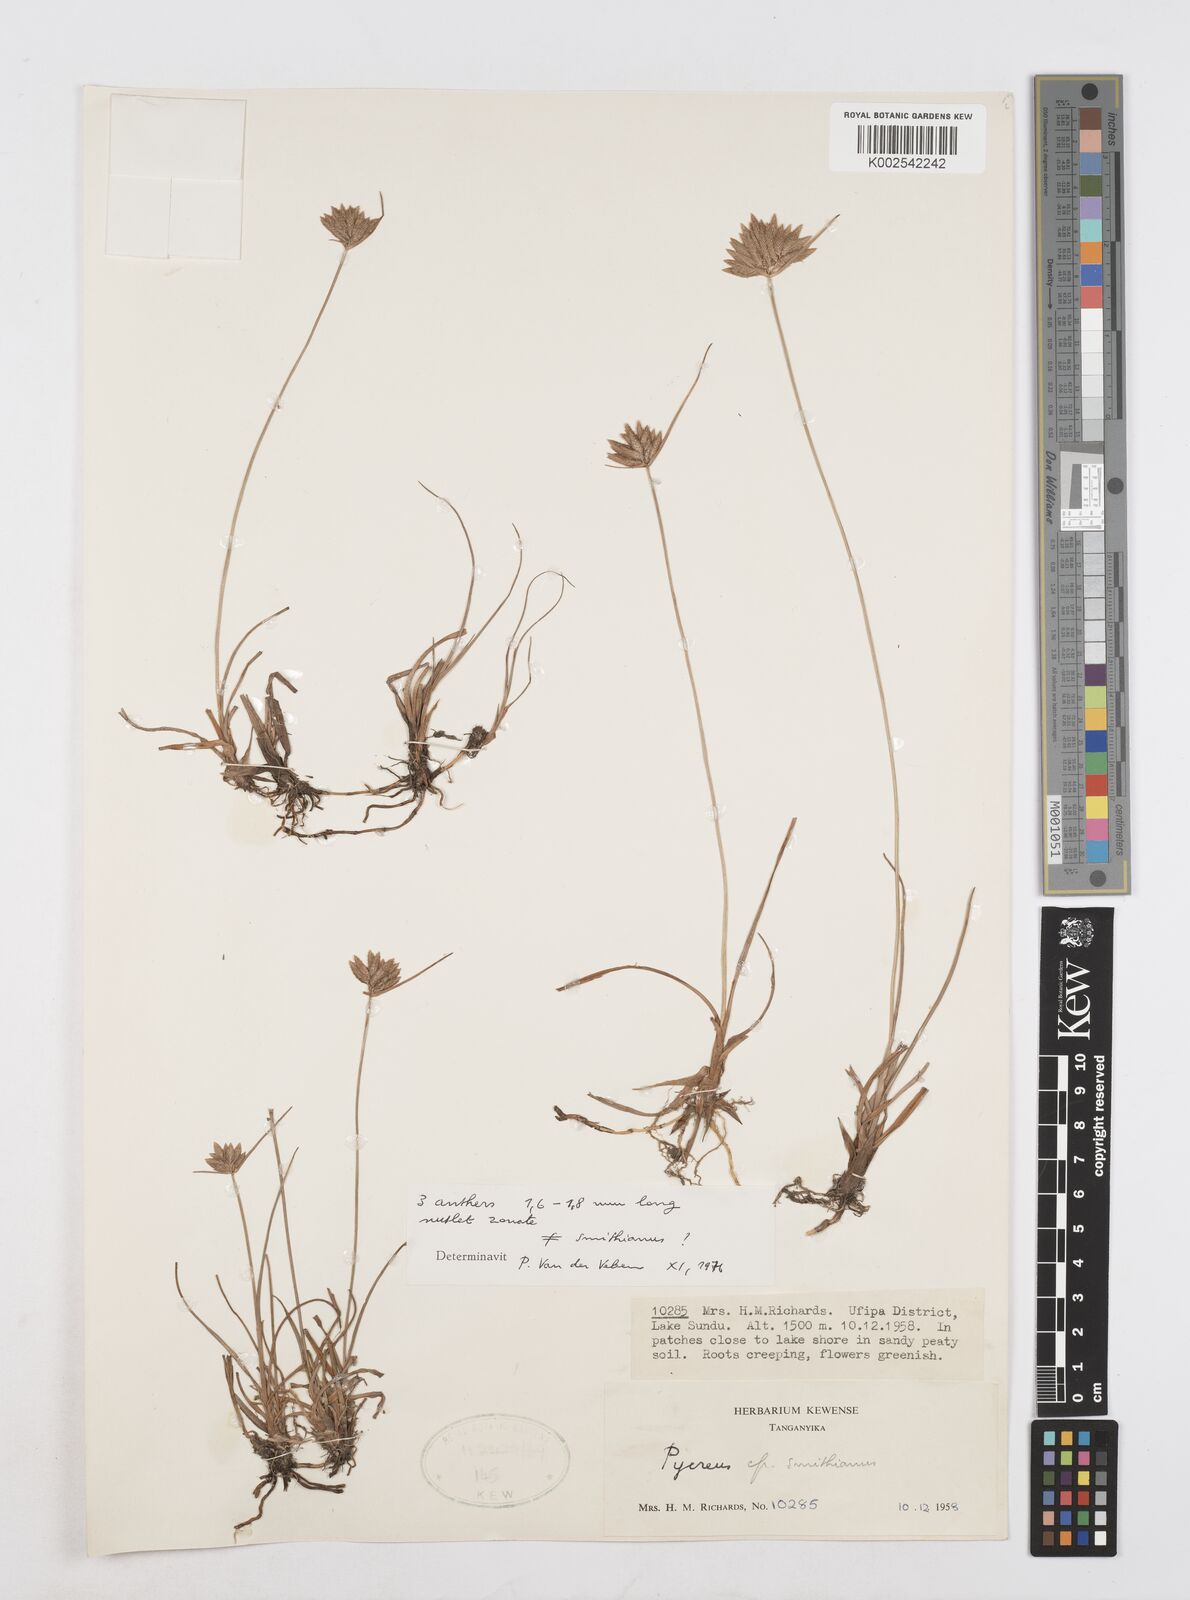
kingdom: Plantae
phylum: Tracheophyta
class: Liliopsida
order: Poales
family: Cyperaceae
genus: Cyperus
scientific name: Cyperus
